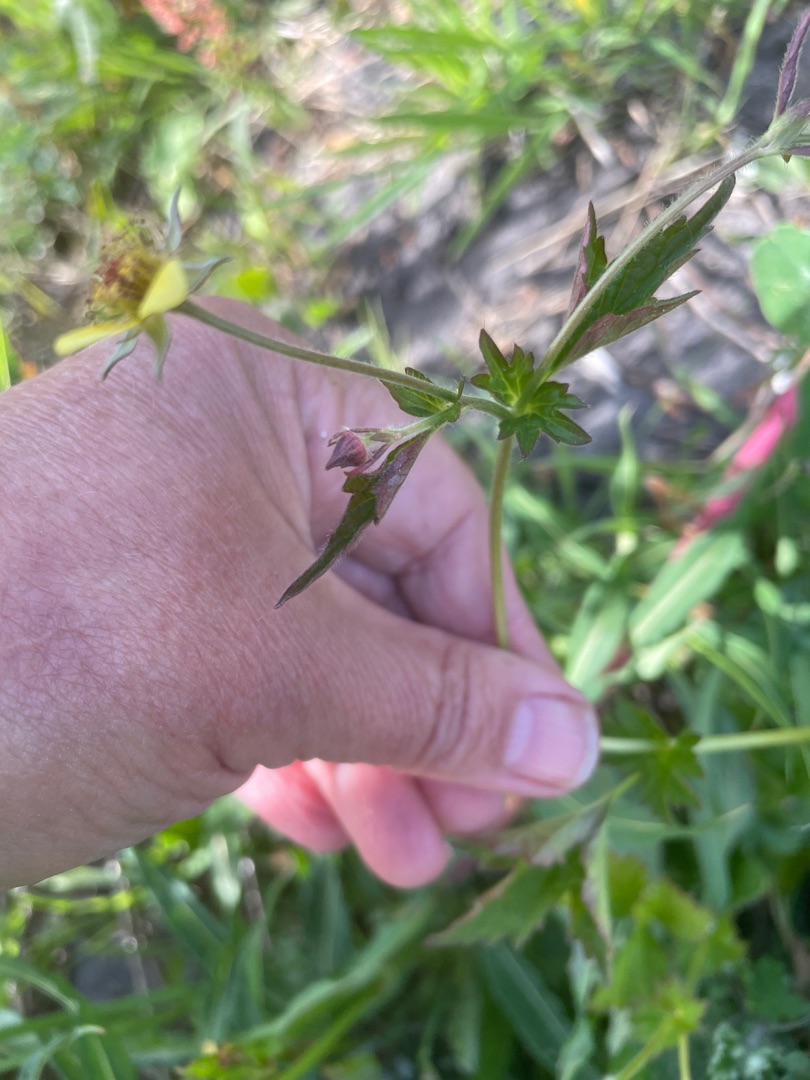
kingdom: Plantae
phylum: Tracheophyta
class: Magnoliopsida
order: Rosales
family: Rosaceae
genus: Geum
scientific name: Geum urbanum
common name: Feber-nellikerod
